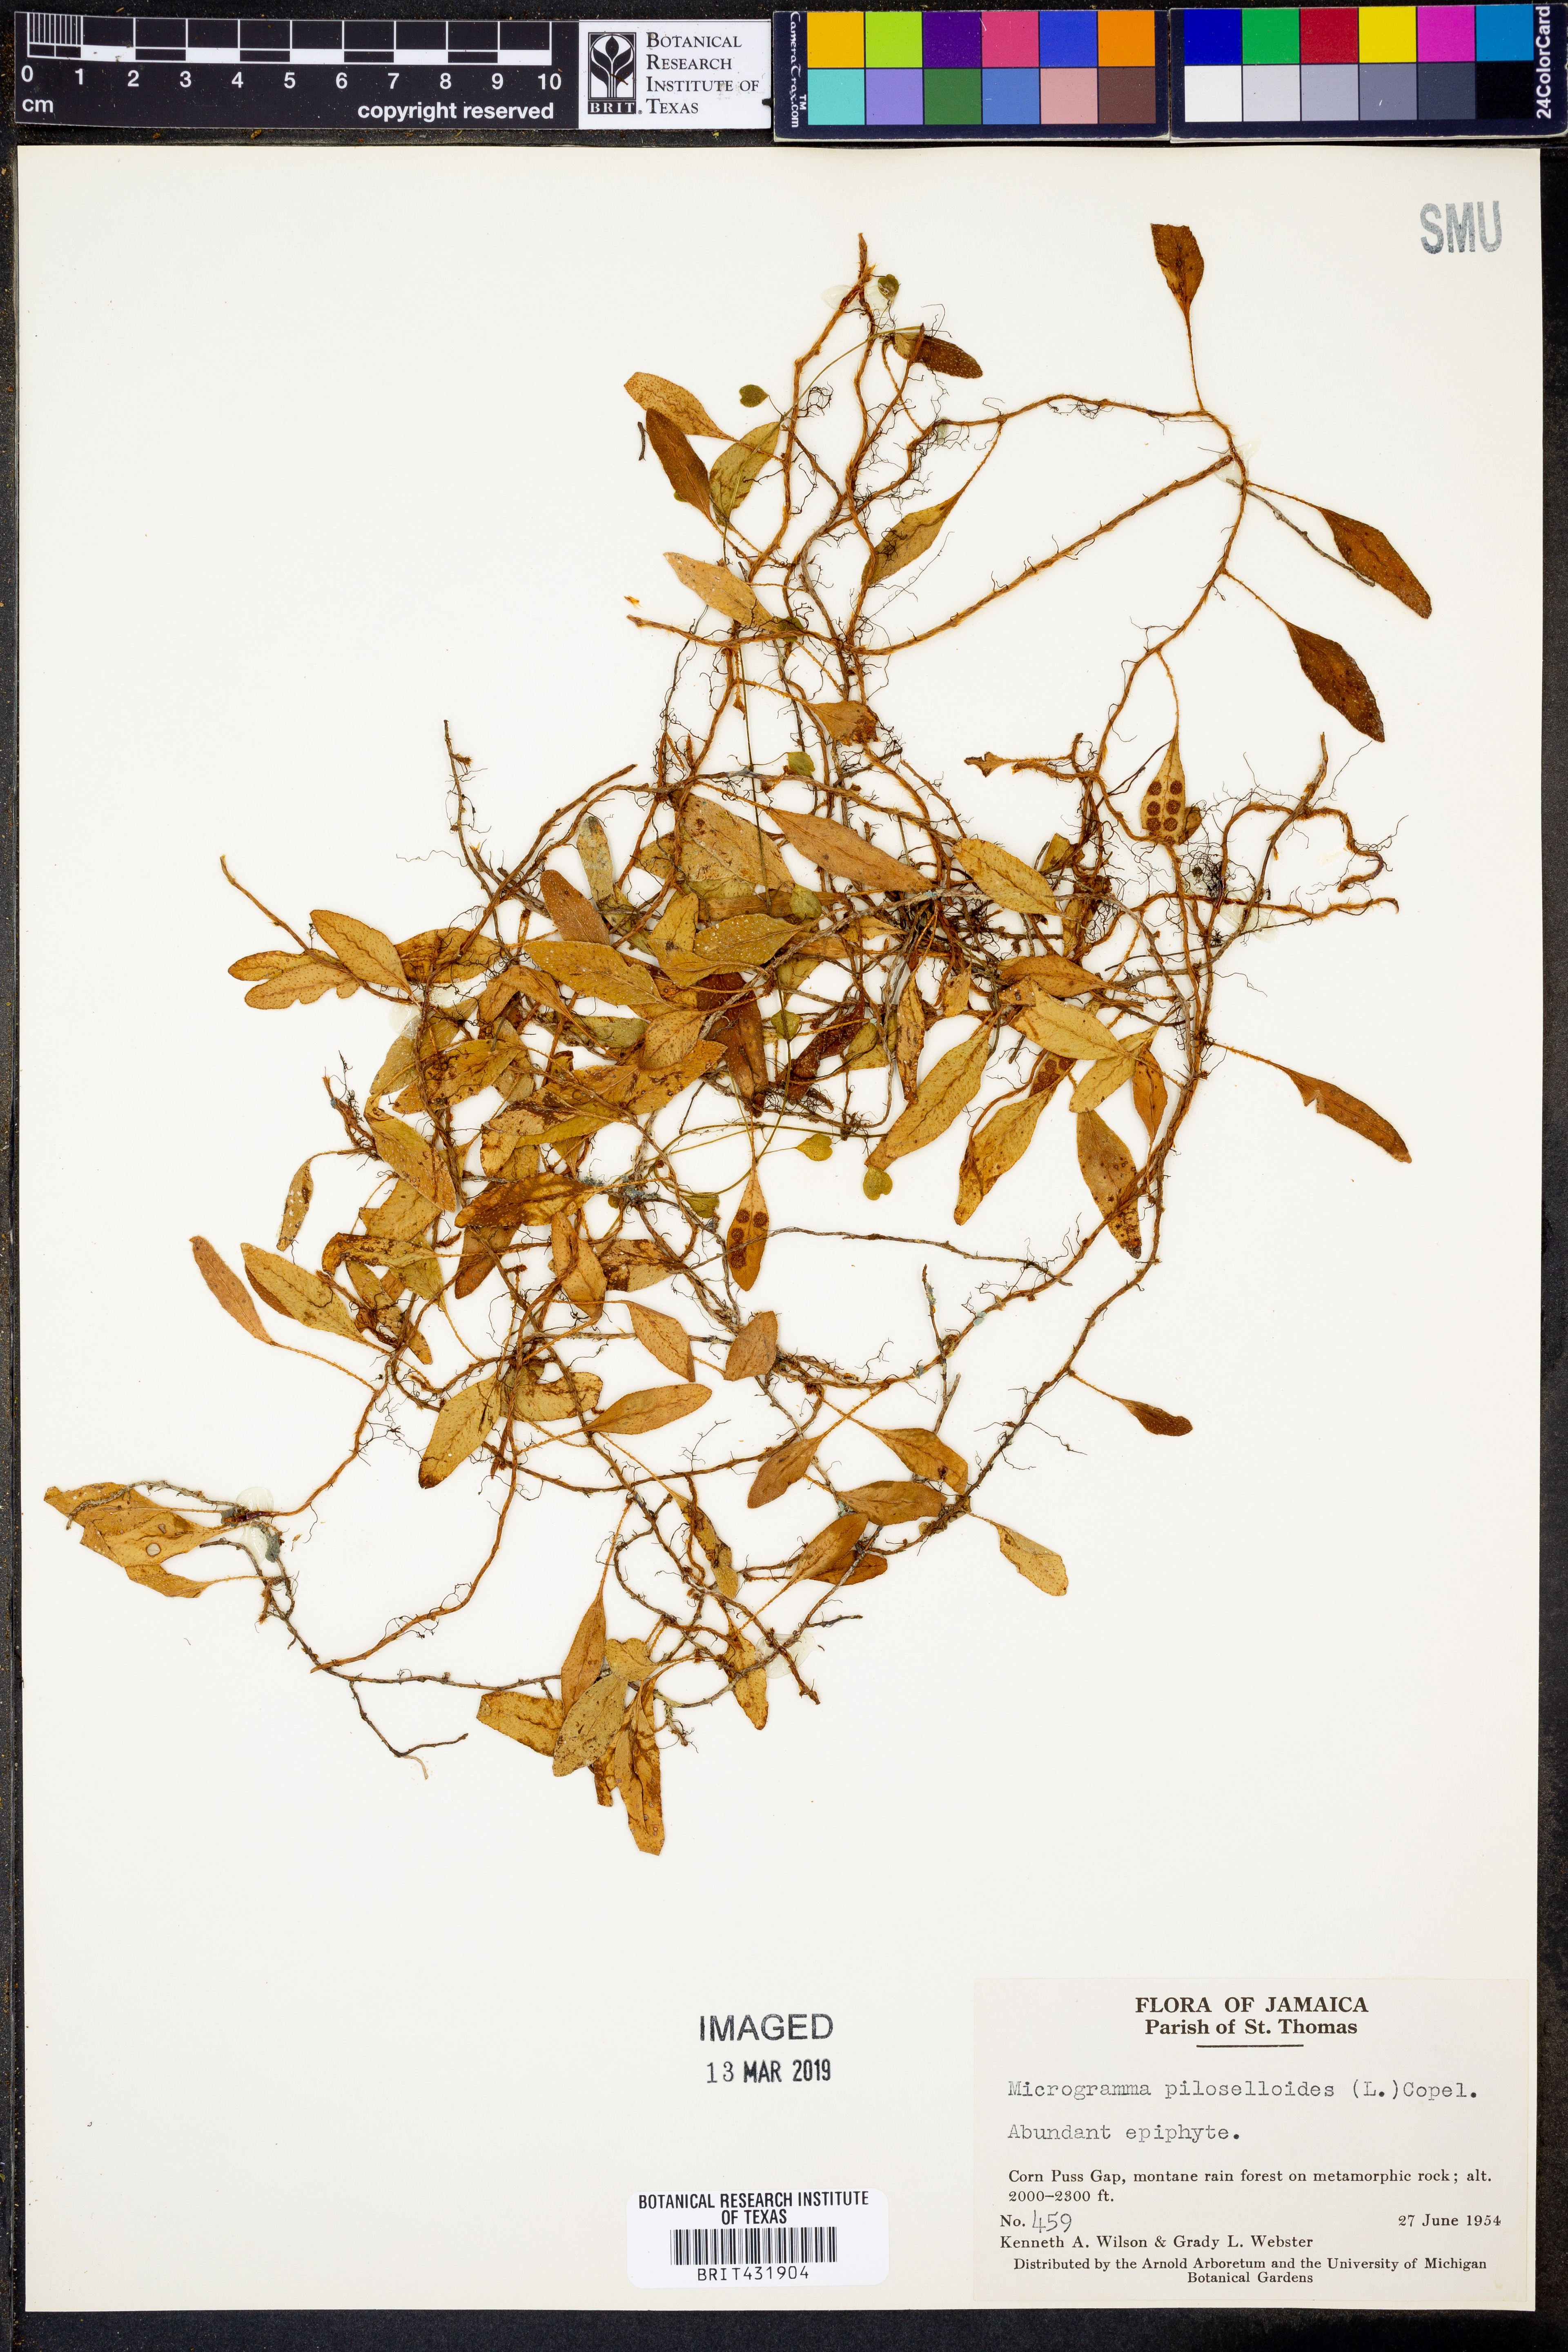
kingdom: Plantae
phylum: Tracheophyta
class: Polypodiopsida
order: Polypodiales
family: Polypodiaceae
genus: Microgramma
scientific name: Microgramma piloselloides
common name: Hairy snakefern
